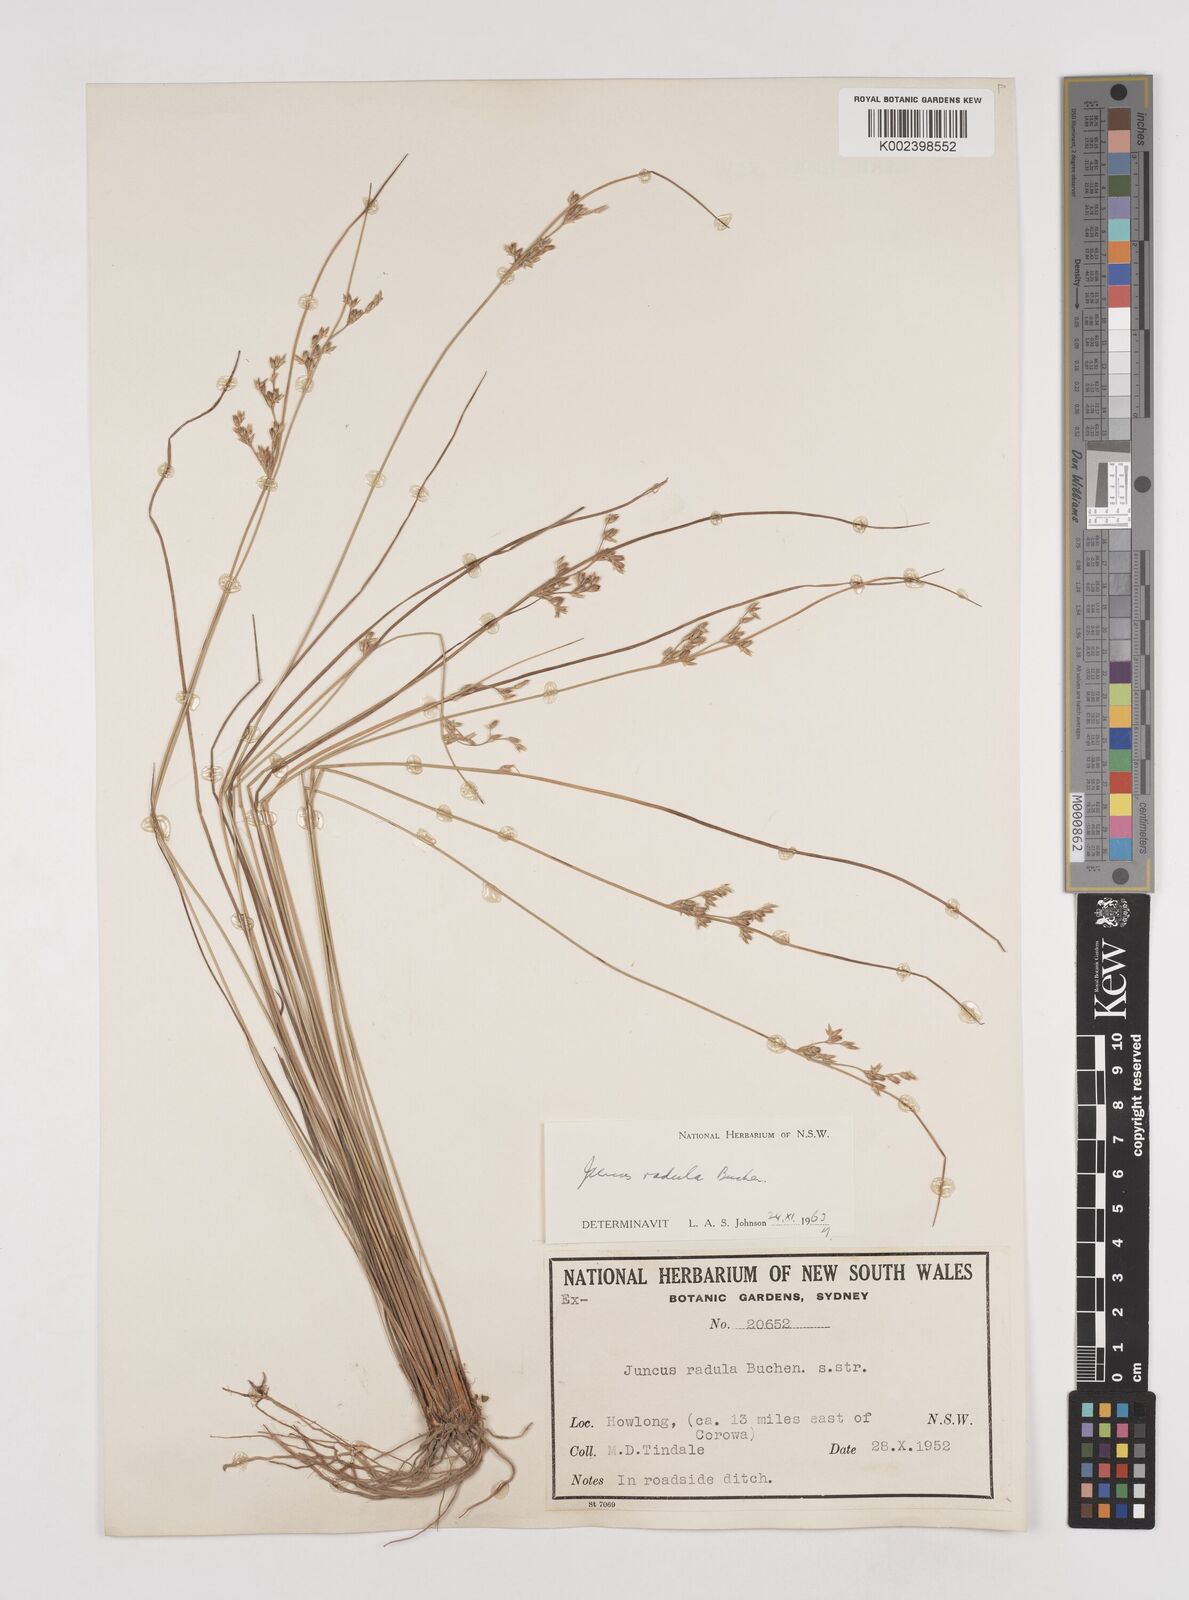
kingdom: Plantae
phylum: Tracheophyta
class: Liliopsida
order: Poales
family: Juncaceae
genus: Juncus
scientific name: Juncus radula
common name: Hoary rush
